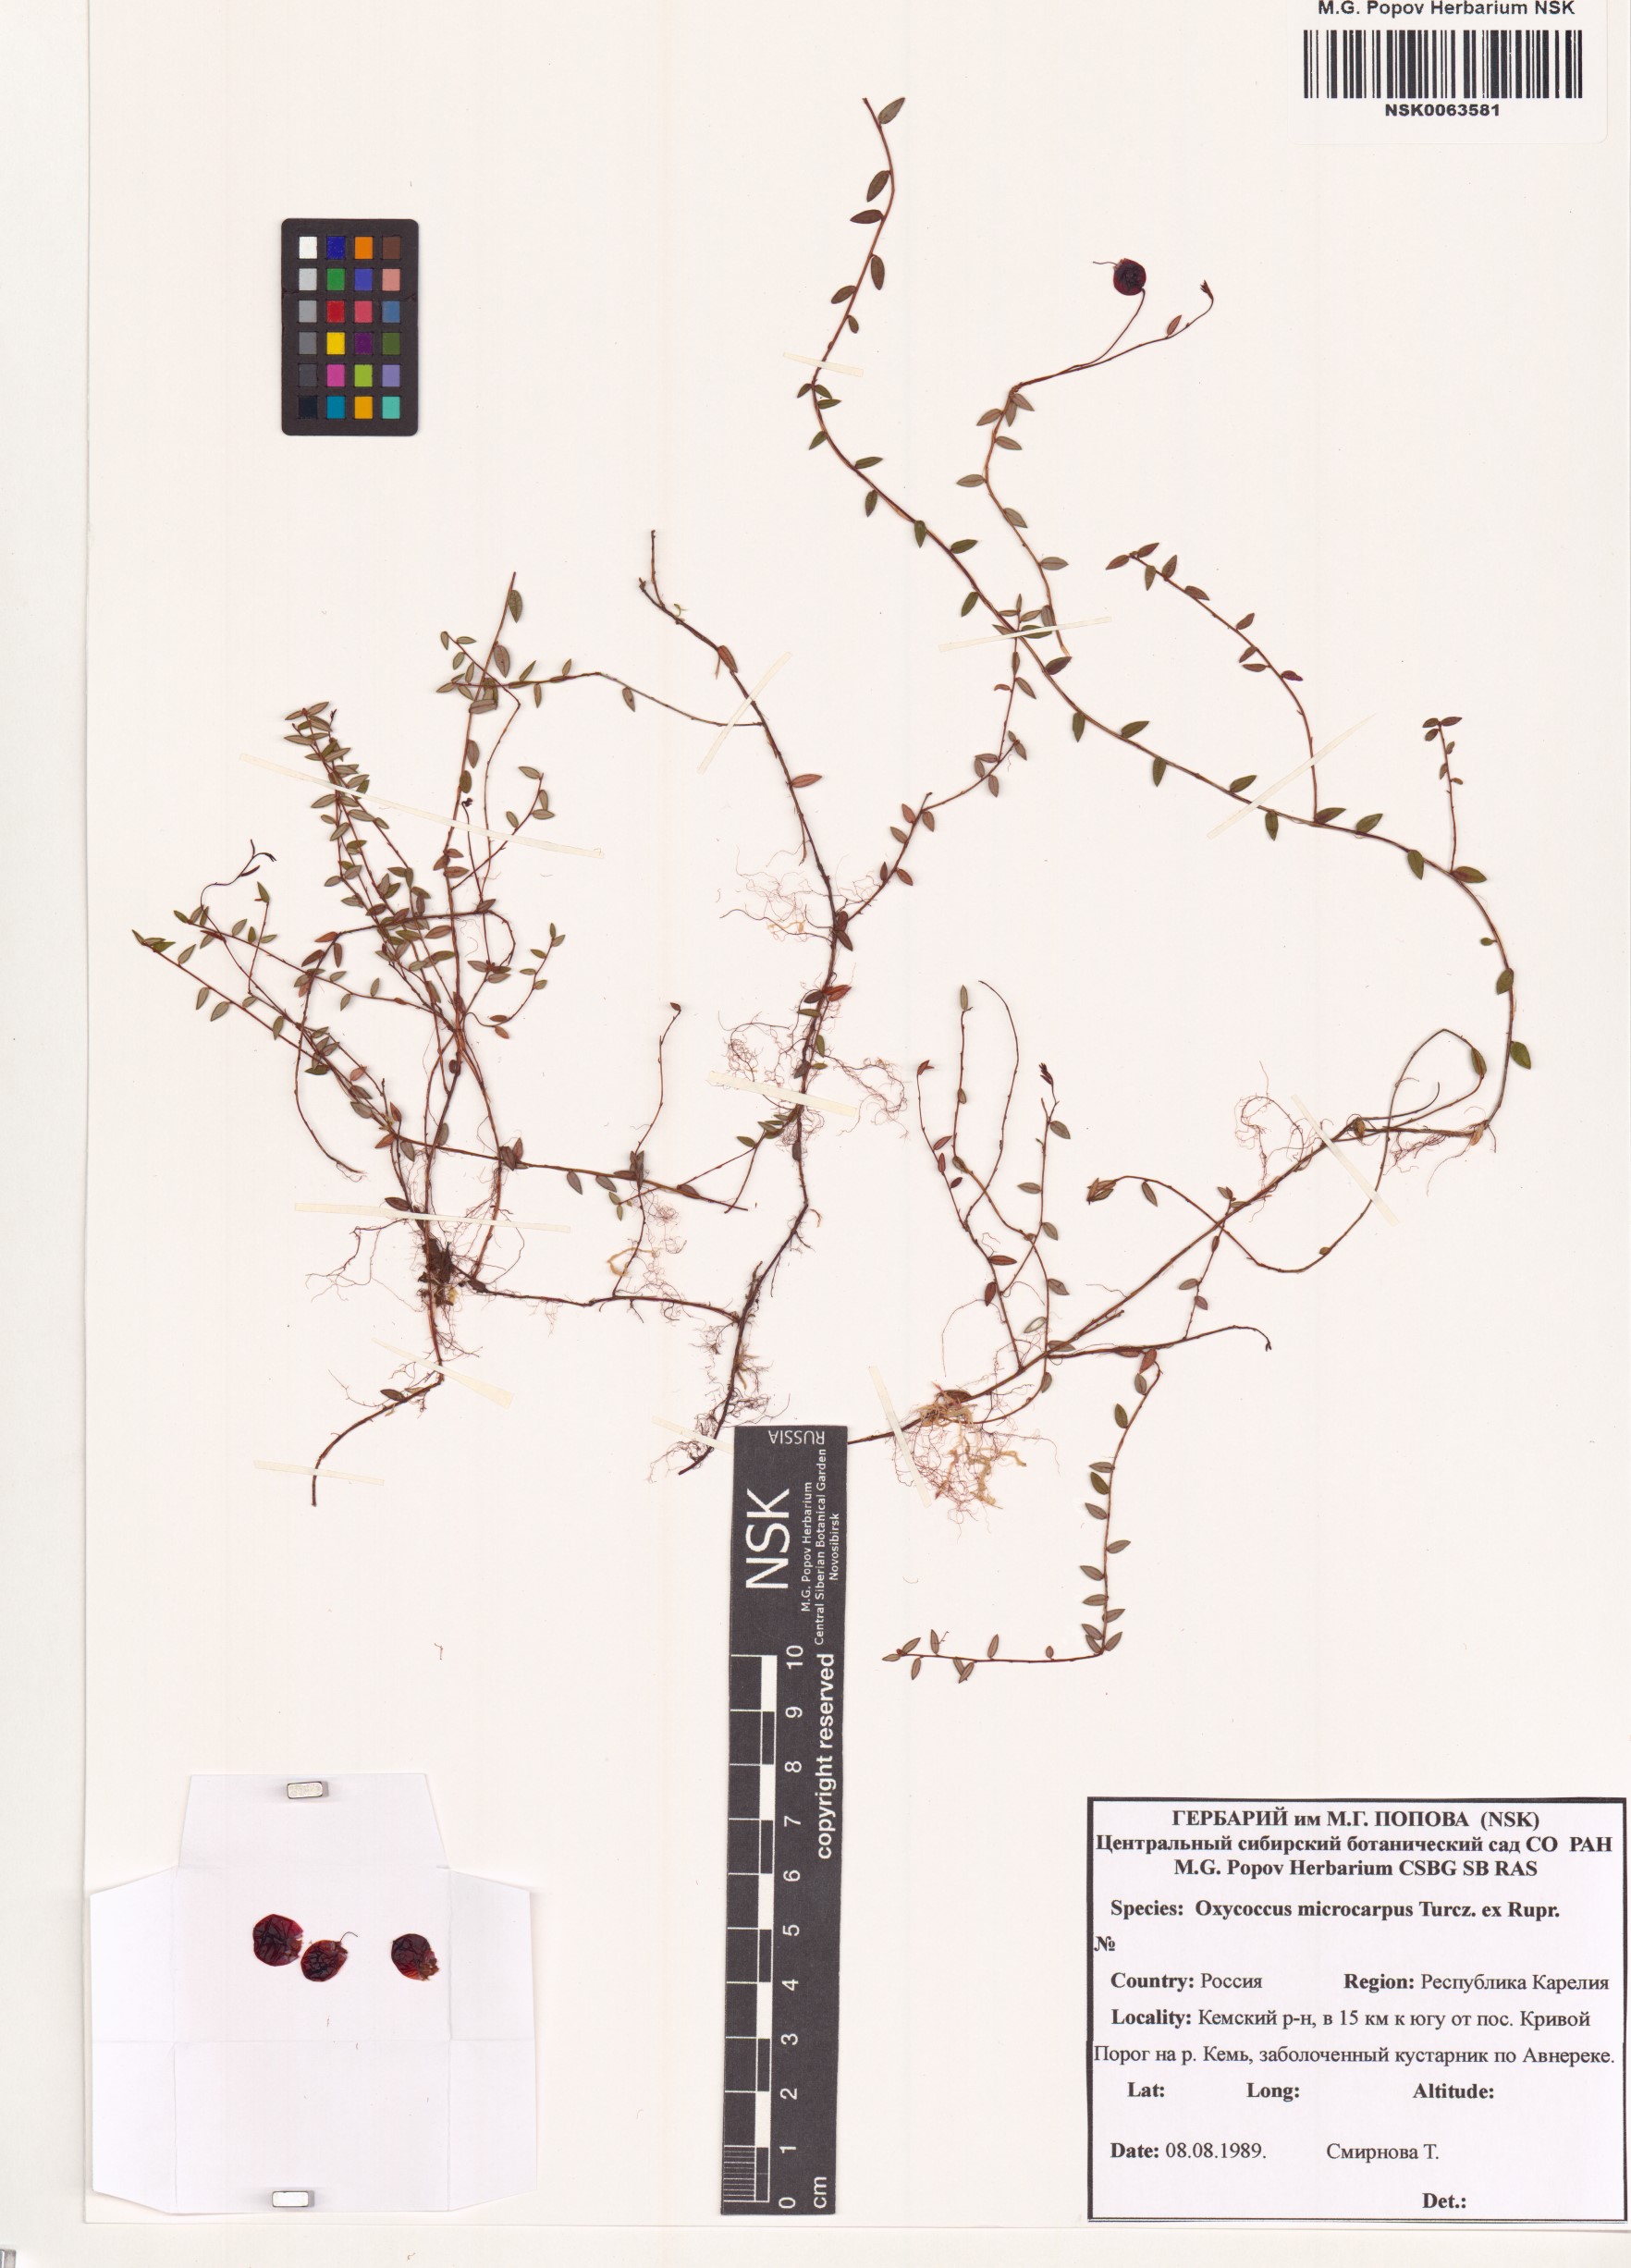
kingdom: Plantae
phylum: Tracheophyta
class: Magnoliopsida
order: Ericales
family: Ericaceae
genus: Vaccinium
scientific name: Vaccinium microcarpum
